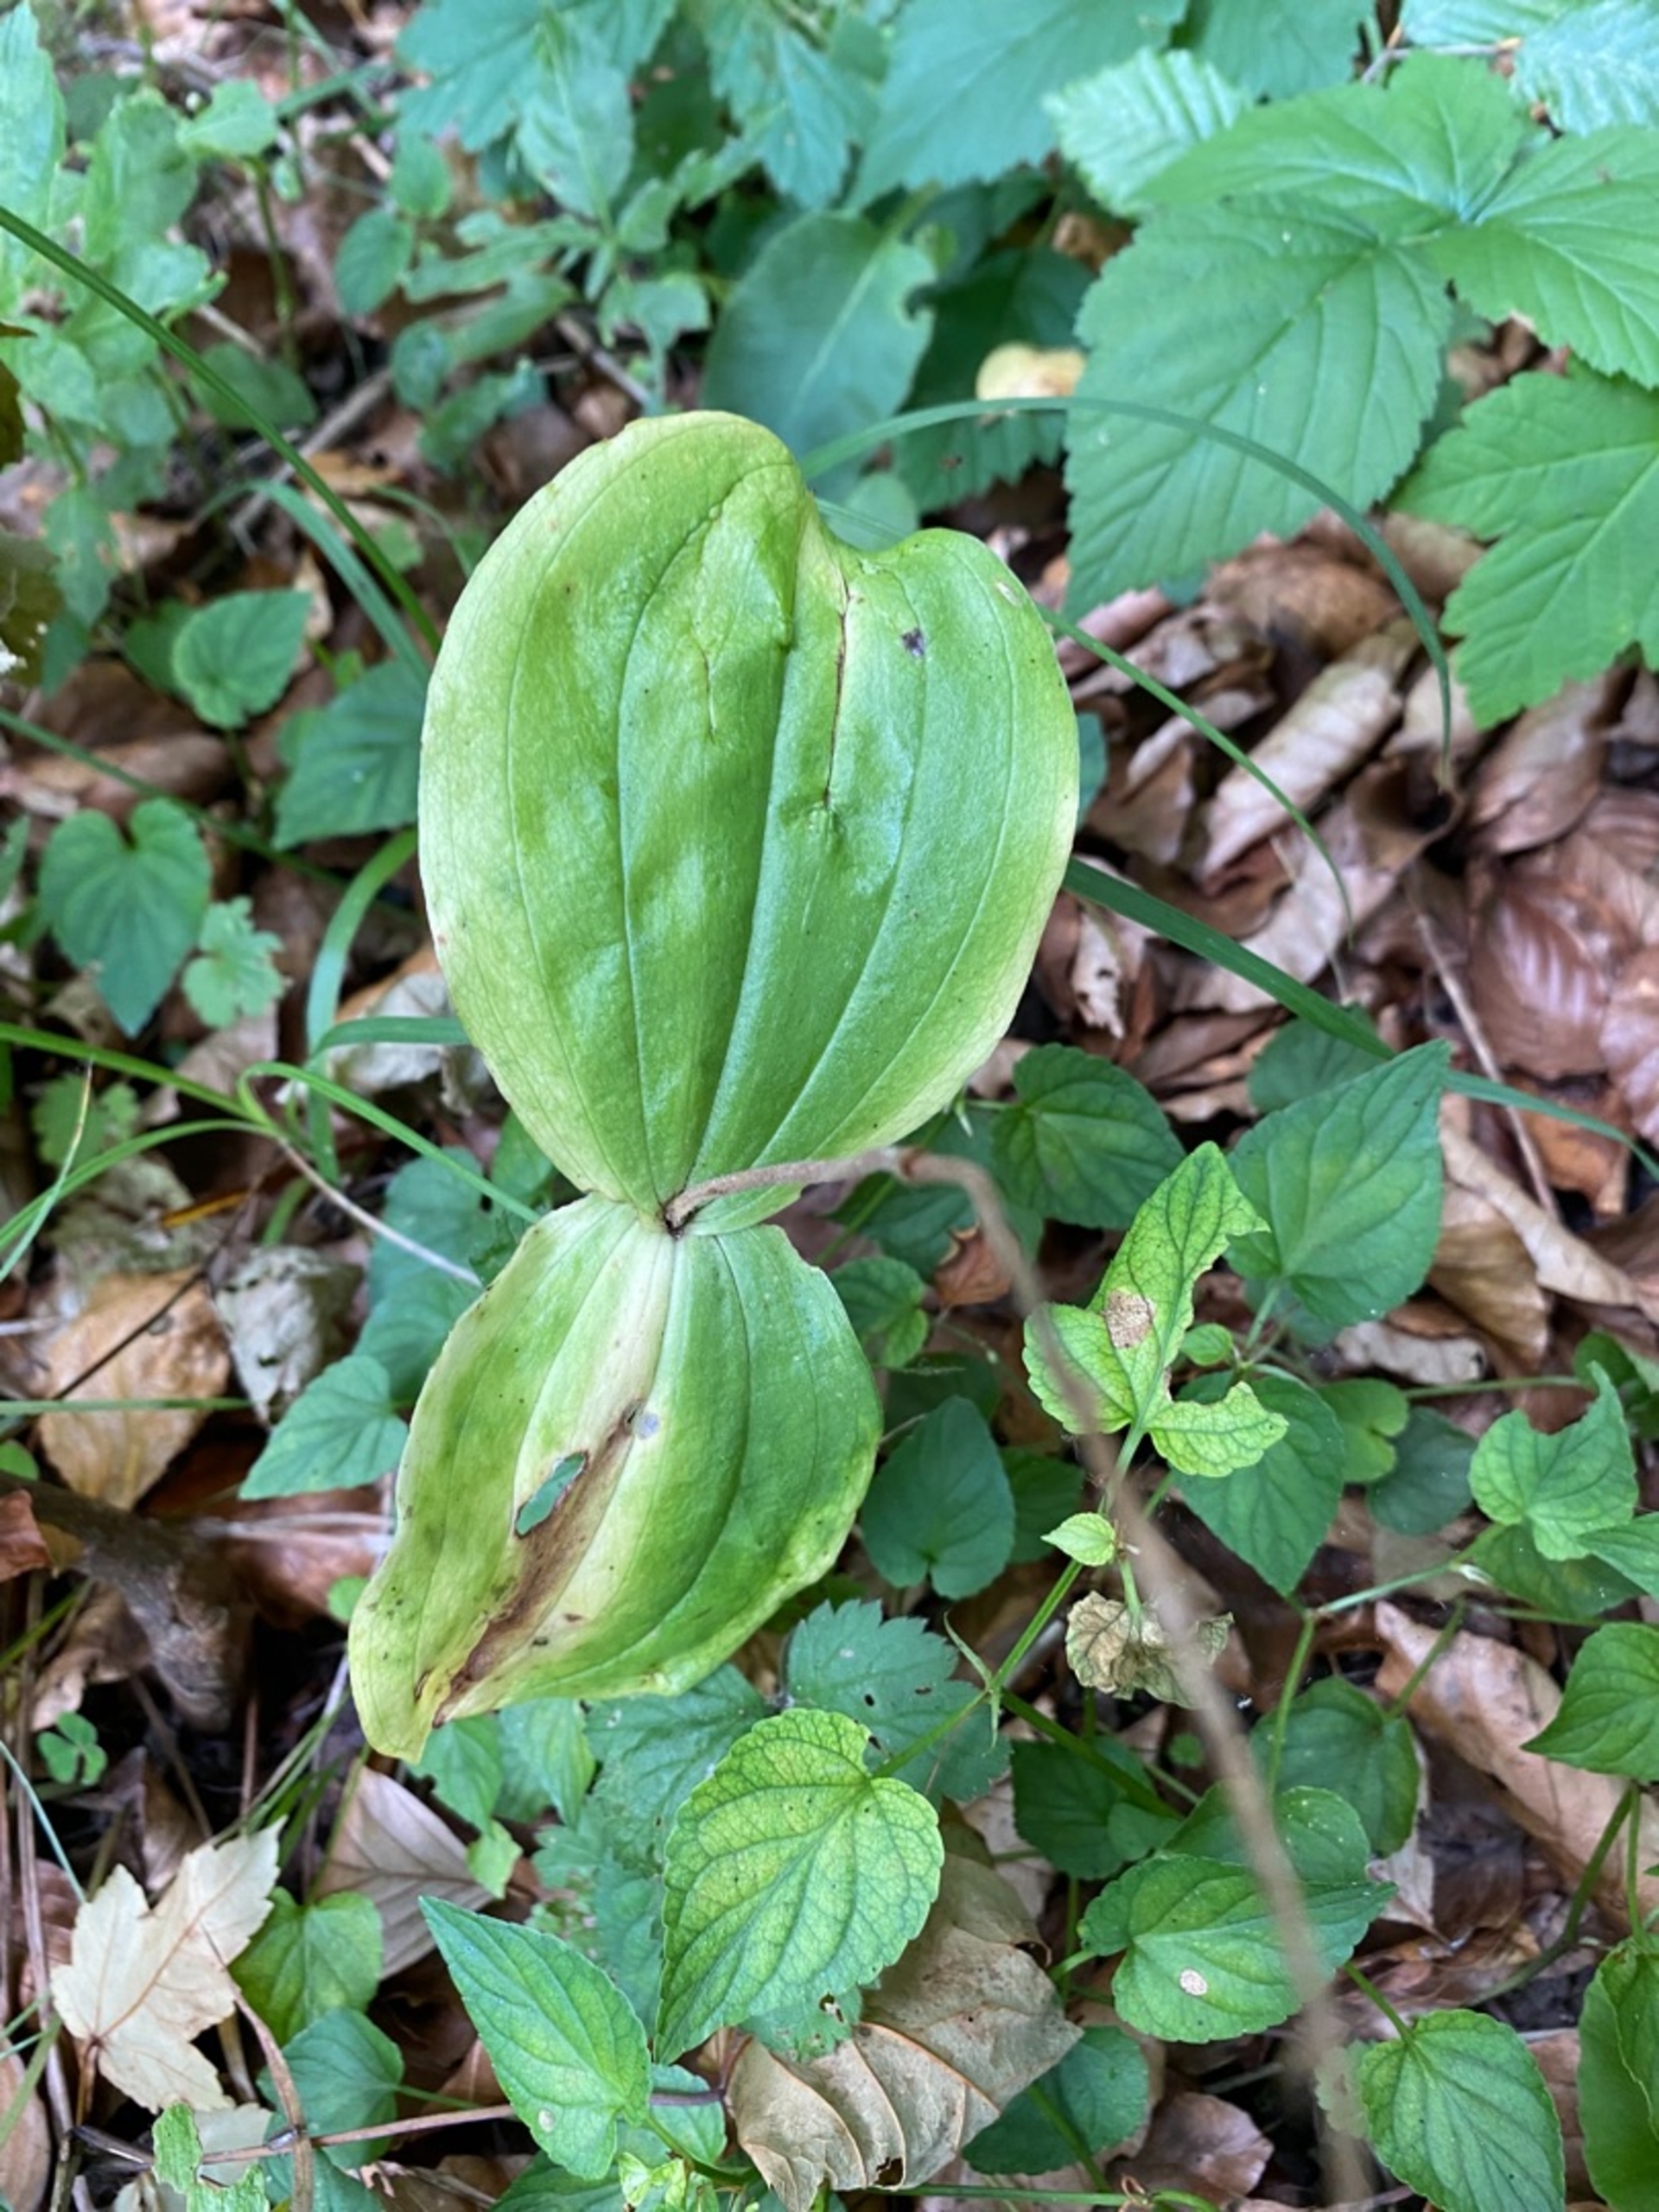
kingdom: Plantae
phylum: Tracheophyta
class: Liliopsida
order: Asparagales
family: Orchidaceae
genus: Neottia
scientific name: Neottia ovata
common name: Ægbladet fliglæbe
